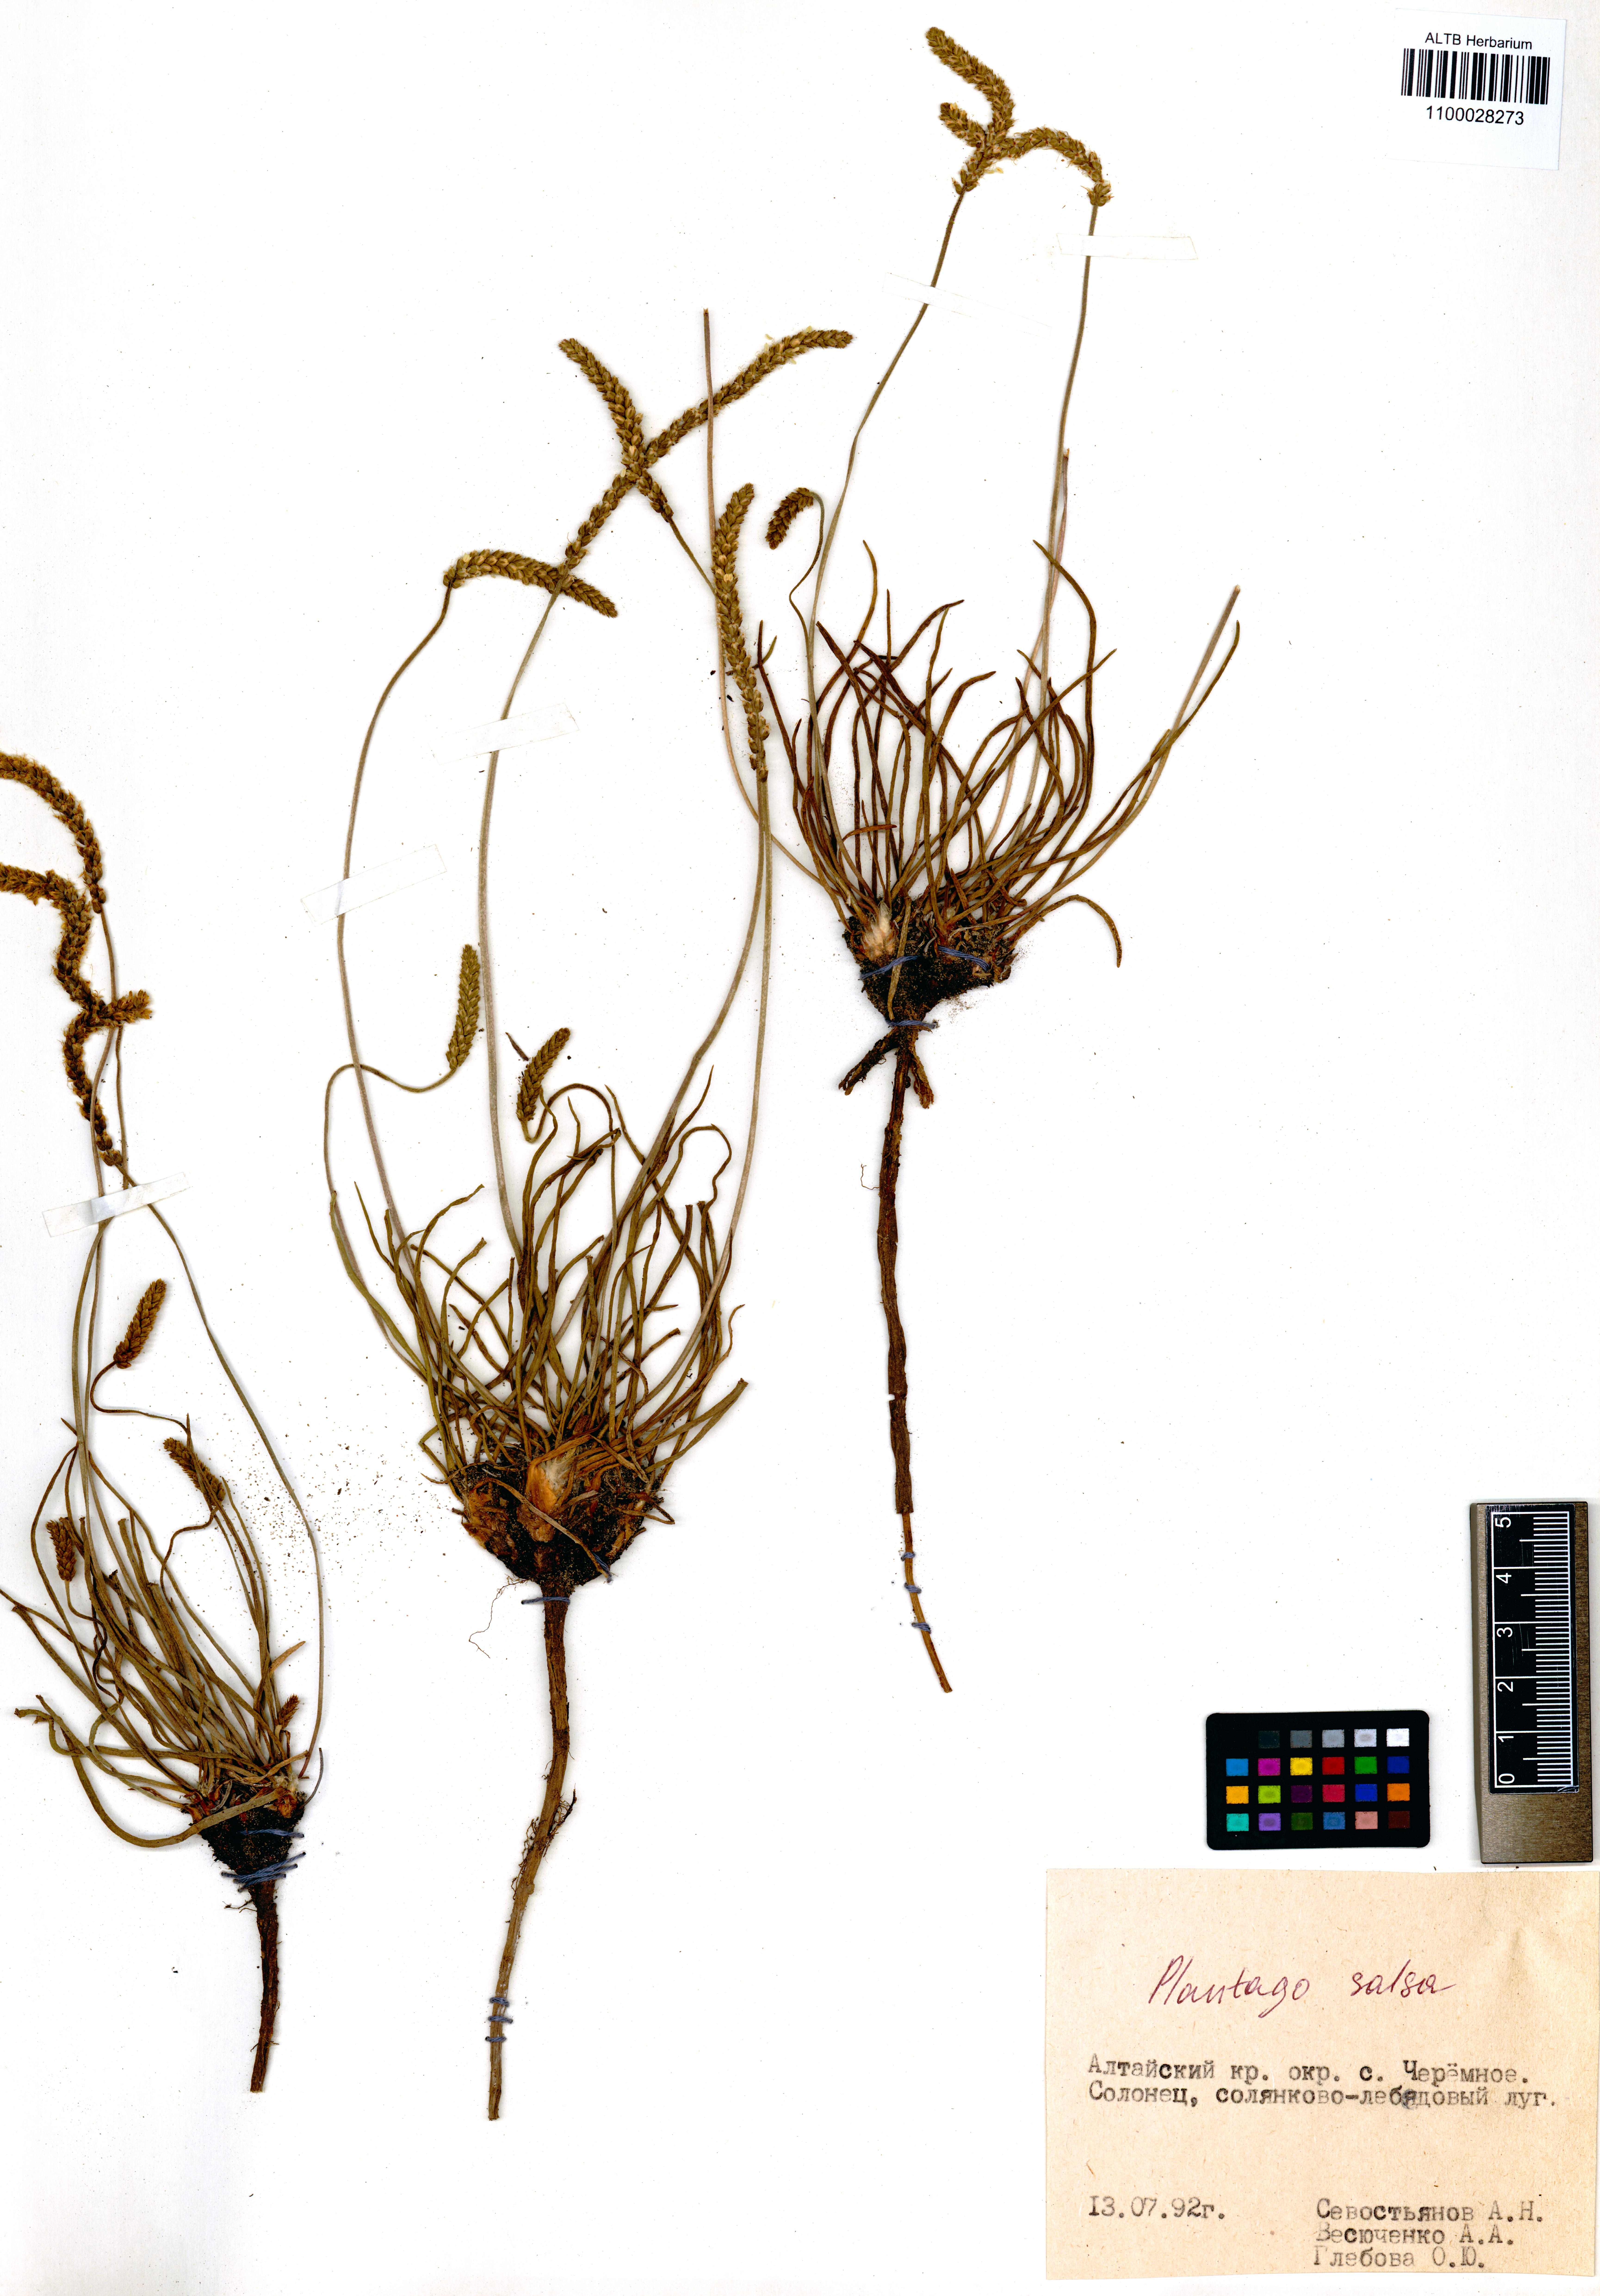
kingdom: Plantae
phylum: Tracheophyta
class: Magnoliopsida
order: Lamiales
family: Plantaginaceae
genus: Plantago
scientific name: Plantago salsa
